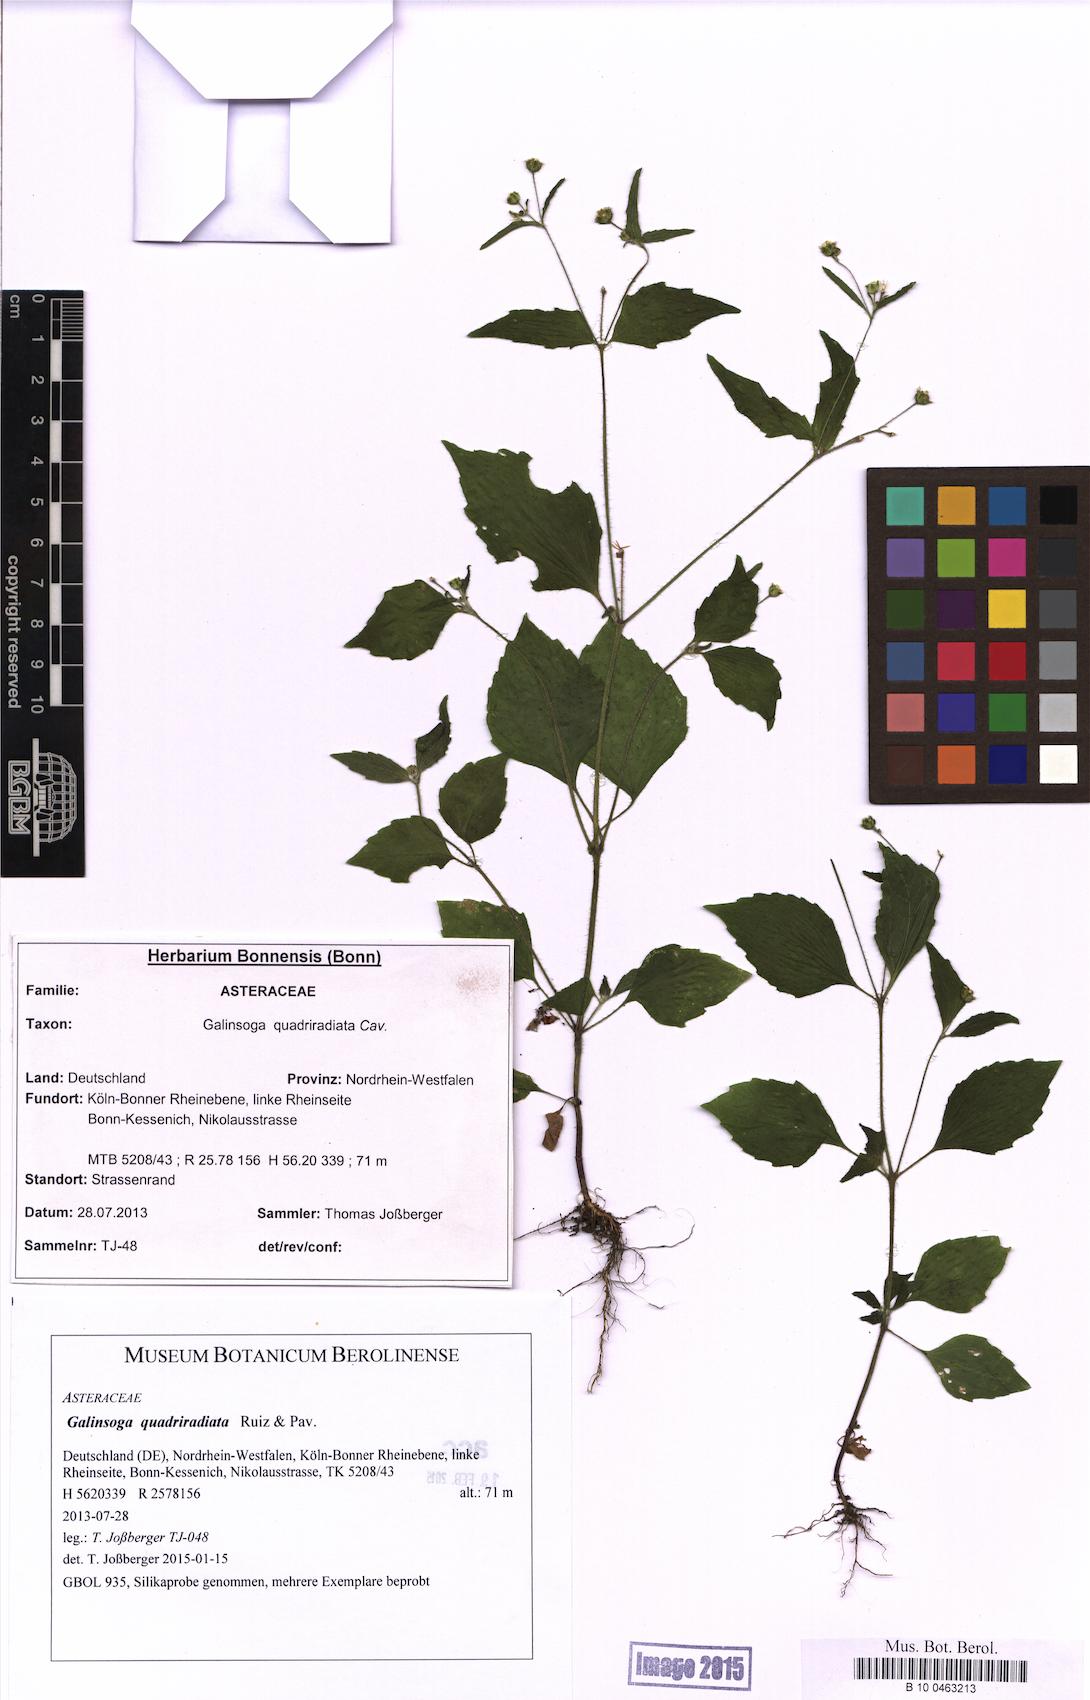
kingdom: Plantae
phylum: Tracheophyta
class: Magnoliopsida
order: Asterales
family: Asteraceae
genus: Galinsoga
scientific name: Galinsoga quadriradiata
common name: Shaggy soldier
